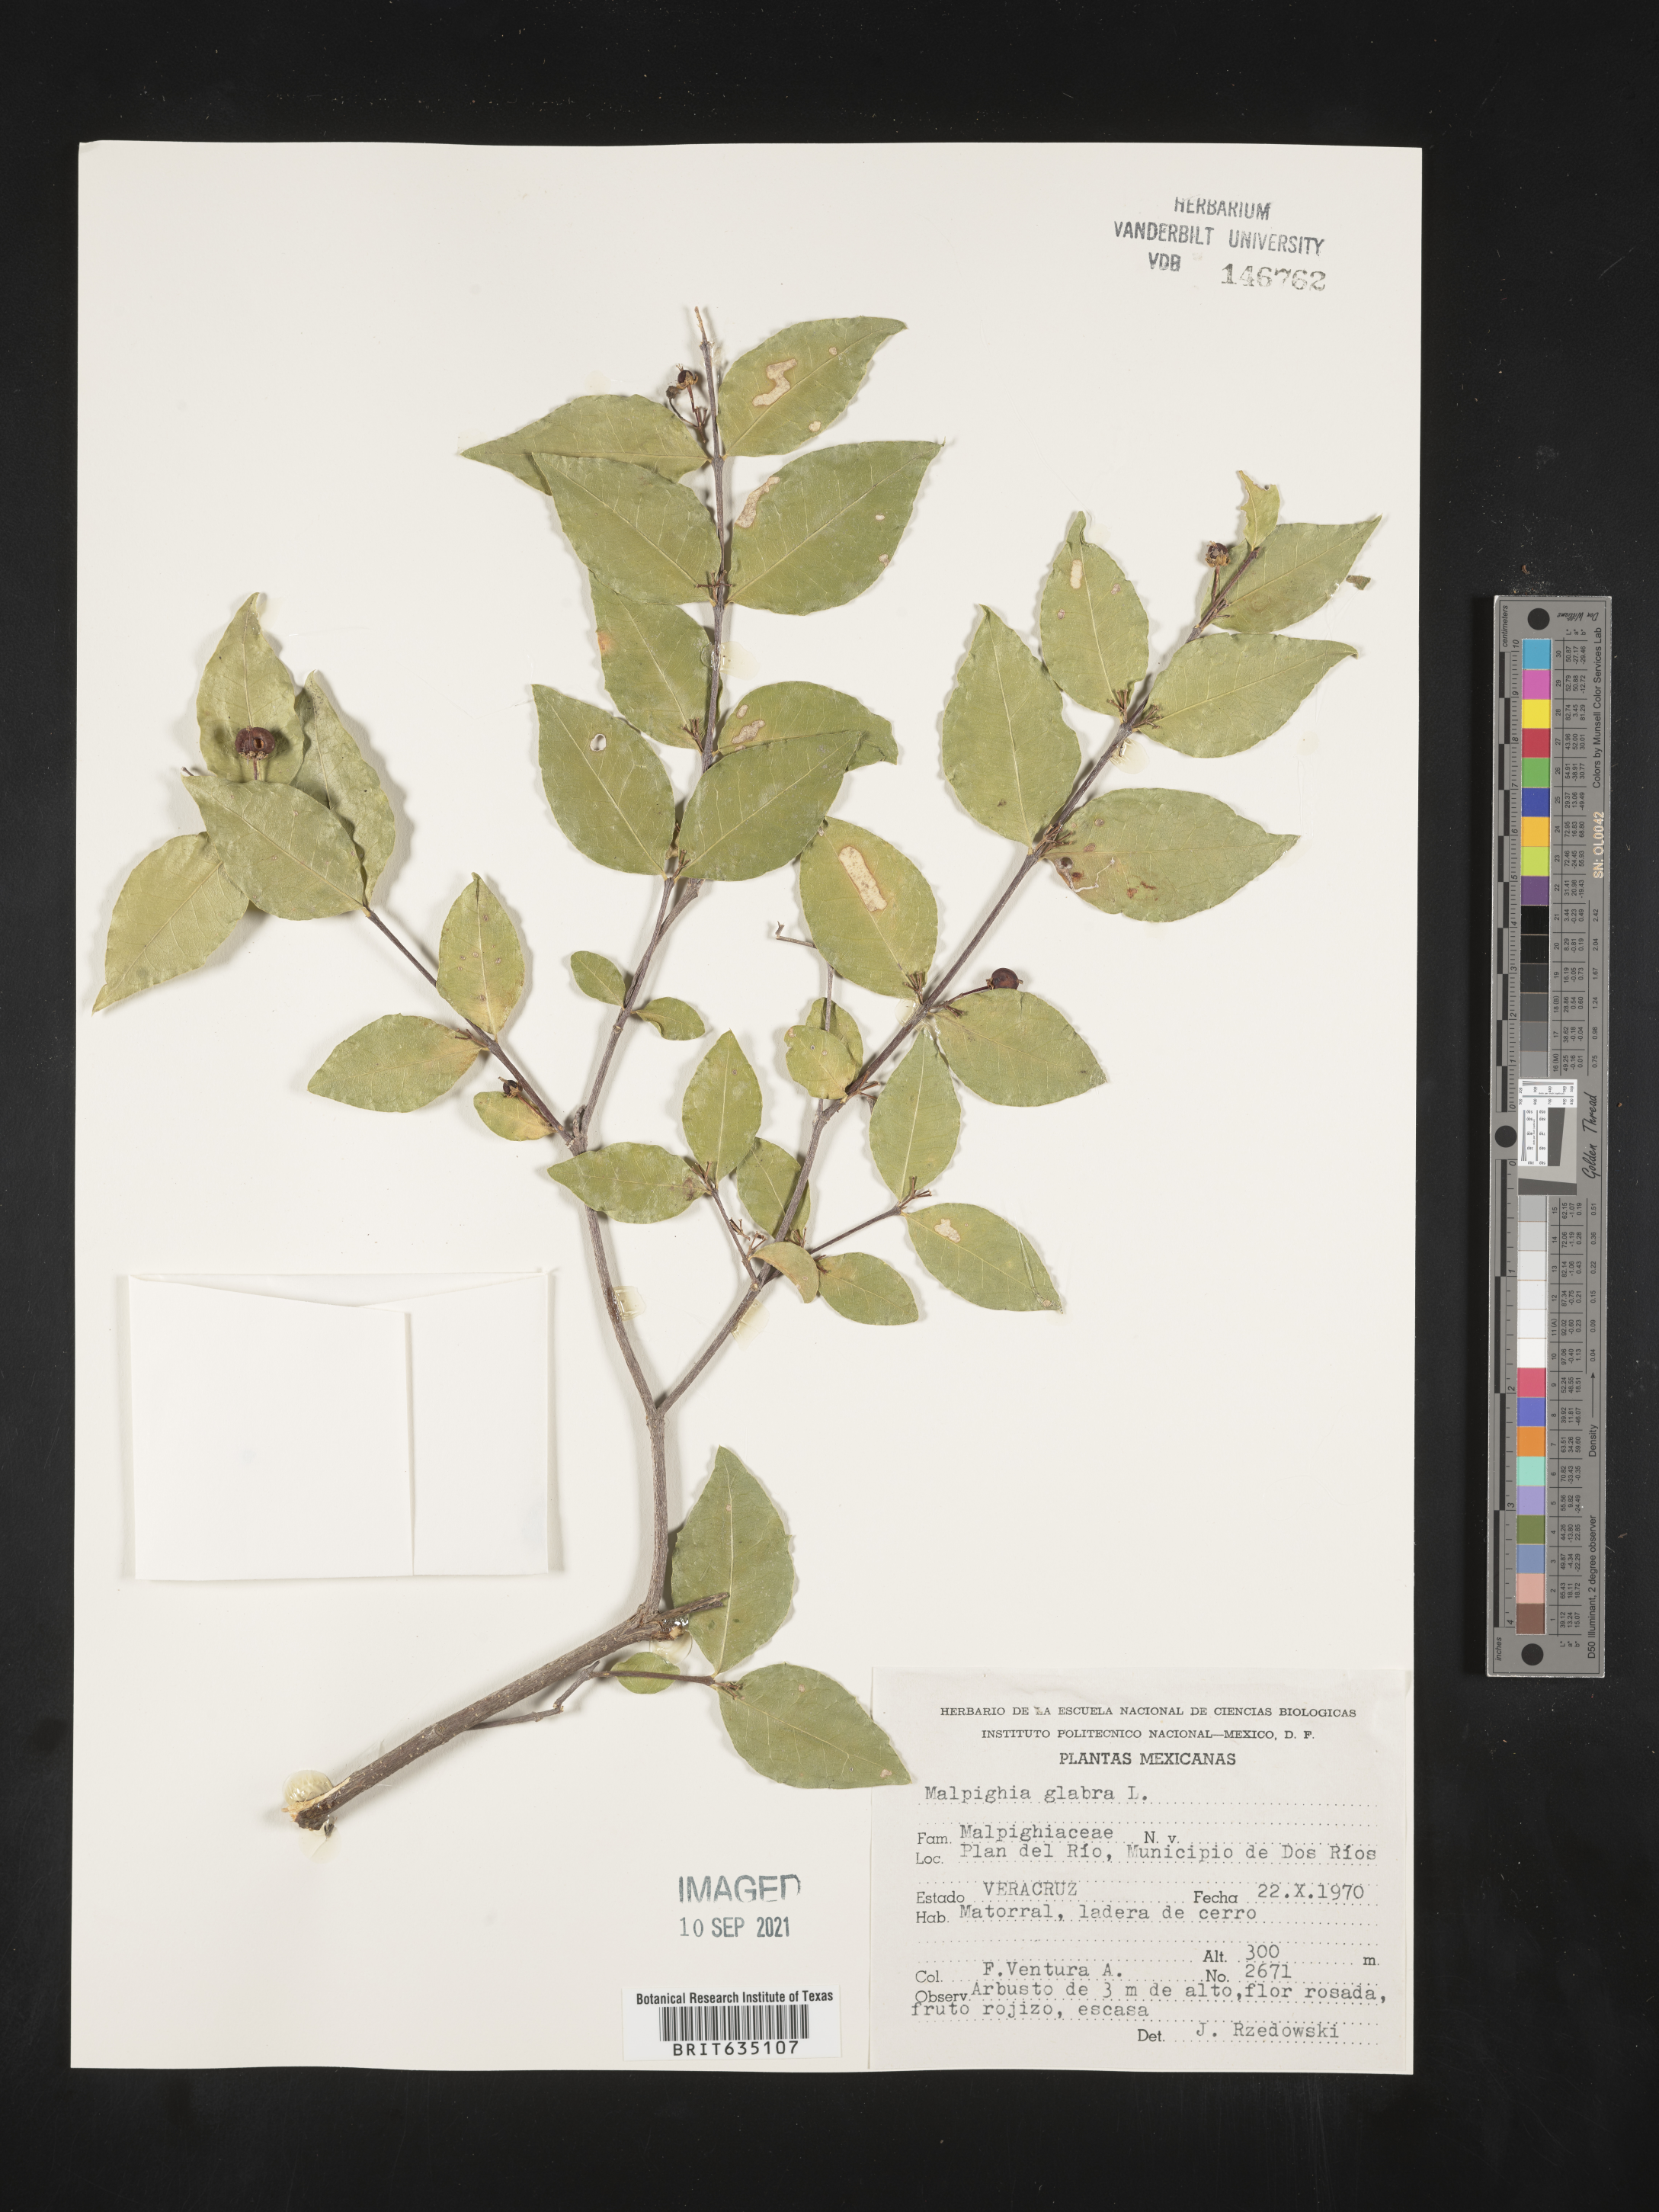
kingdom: Plantae
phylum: Tracheophyta
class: Magnoliopsida
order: Malpighiales
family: Malpighiaceae
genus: Malpighia
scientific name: Malpighia
